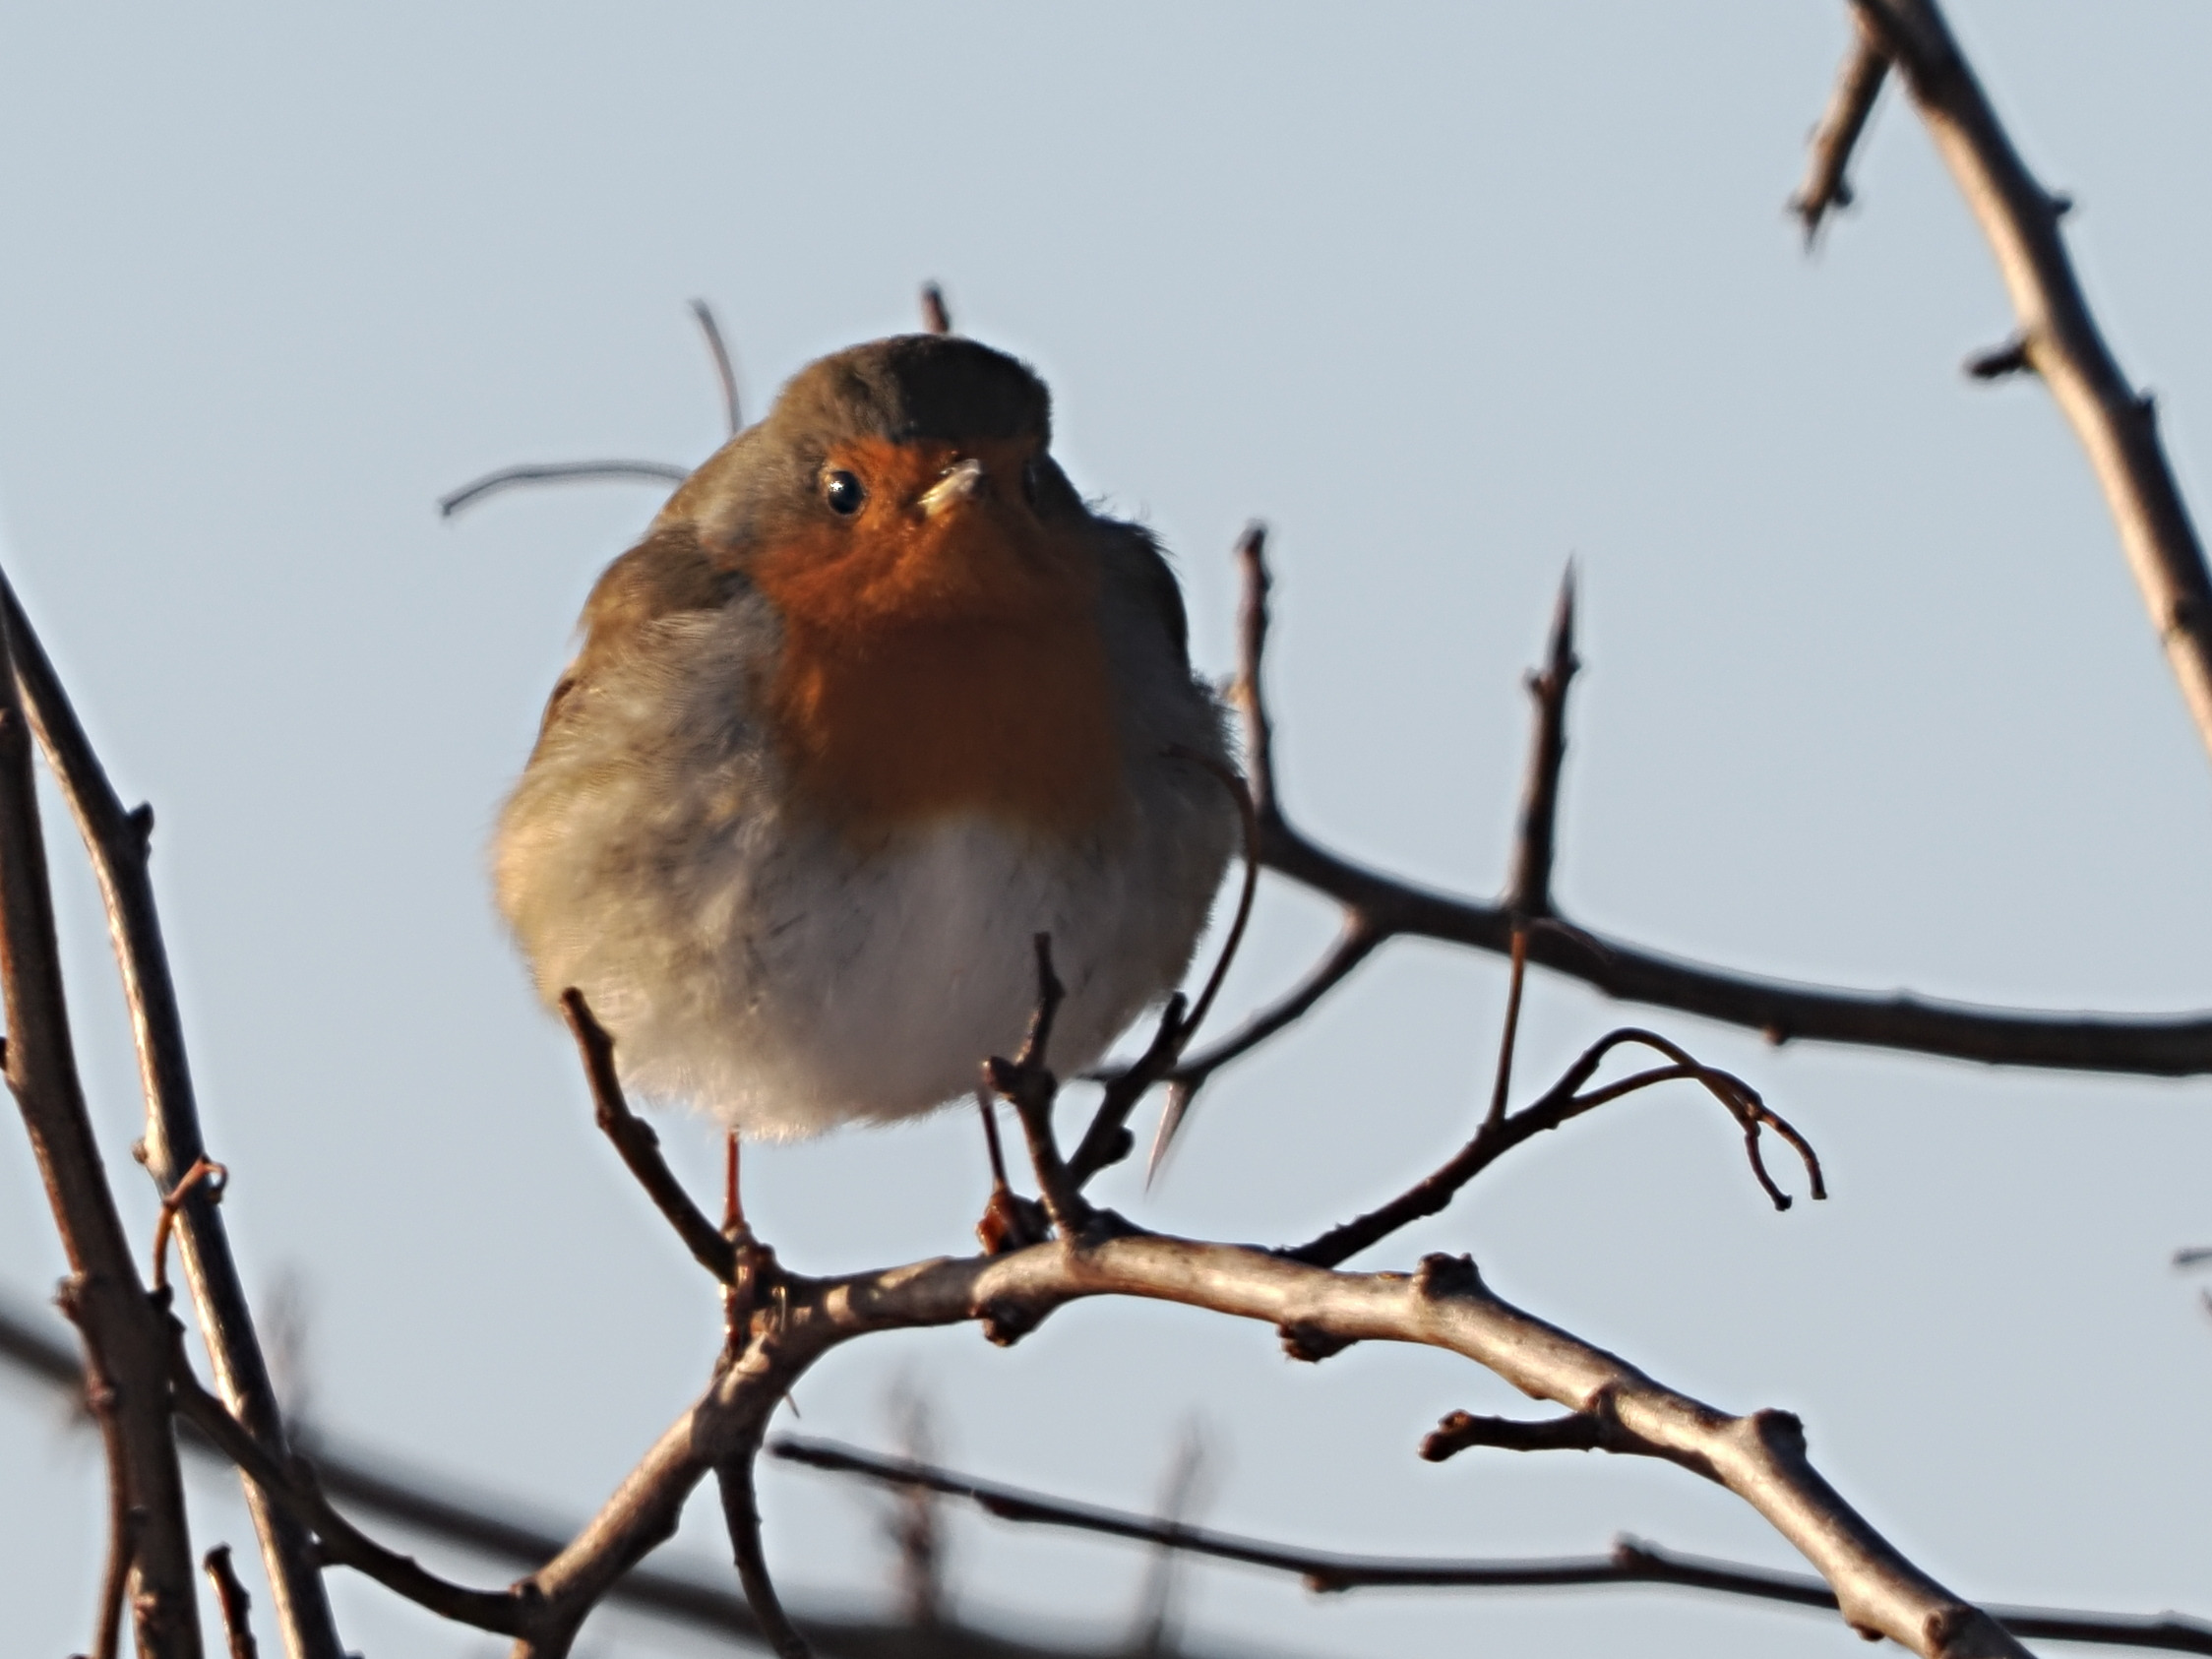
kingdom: Animalia
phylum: Chordata
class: Aves
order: Passeriformes
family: Muscicapidae
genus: Erithacus
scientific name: Erithacus rubecula
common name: Rødhals/rødkælk
